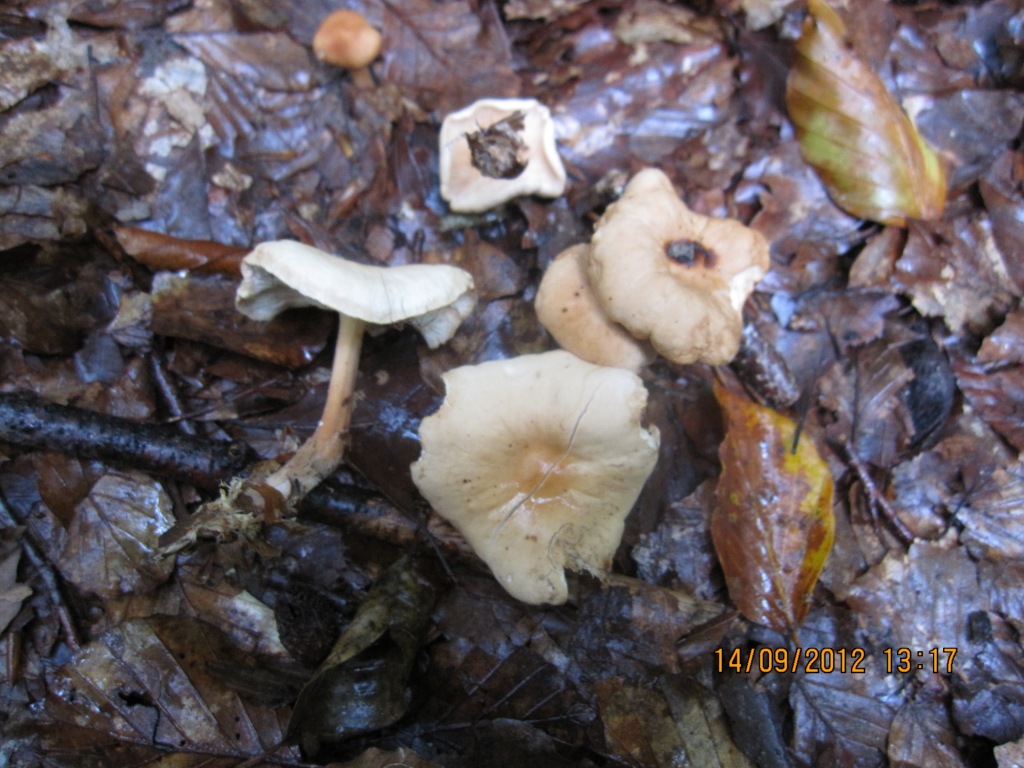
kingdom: Fungi
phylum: Basidiomycota
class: Agaricomycetes
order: Agaricales
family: Omphalotaceae
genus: Gymnopus
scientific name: Gymnopus dryophilus
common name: løv-fladhat
